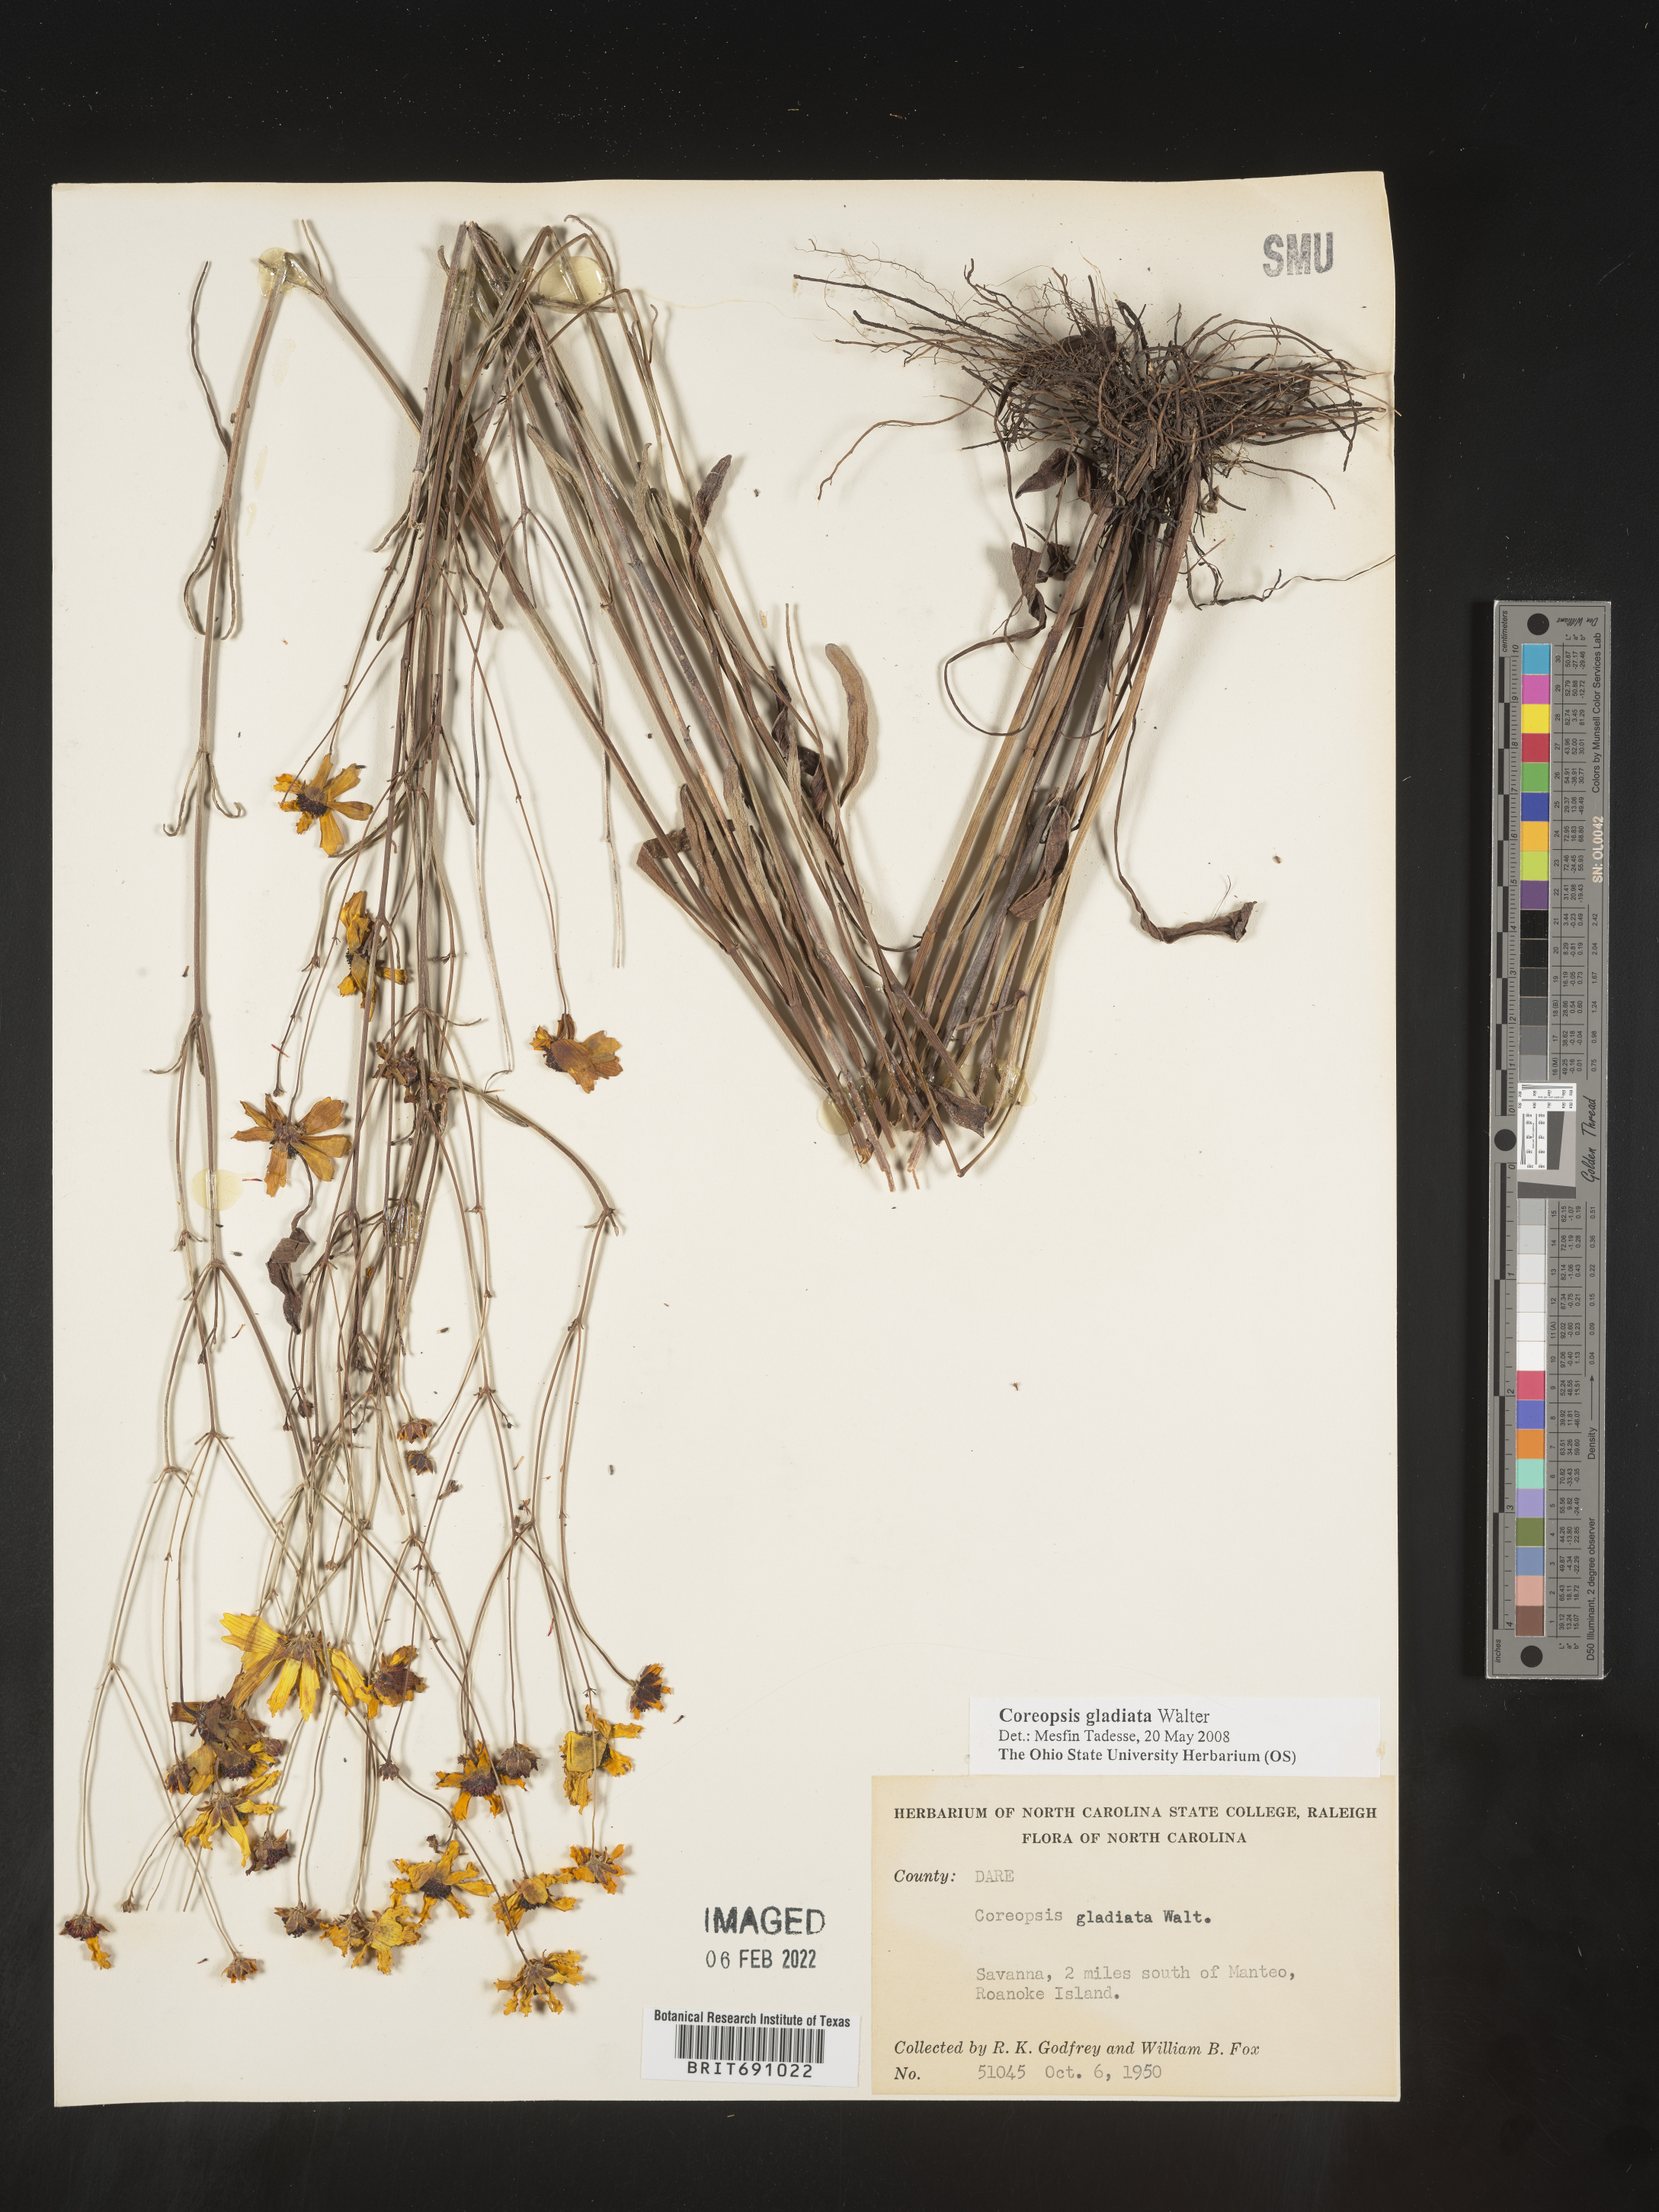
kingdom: Plantae
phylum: Tracheophyta
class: Magnoliopsida
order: Asterales
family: Asteraceae
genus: Coreopsis
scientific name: Coreopsis gladiata
